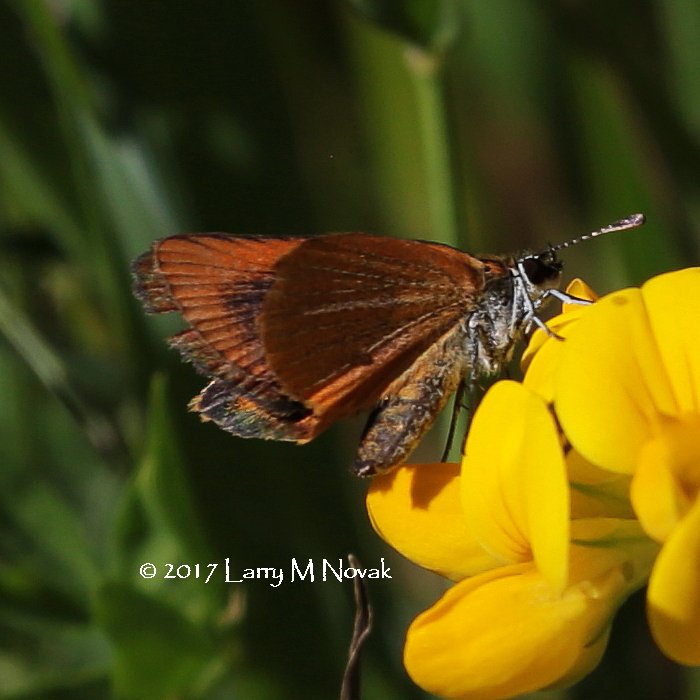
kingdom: Animalia
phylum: Arthropoda
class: Insecta
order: Lepidoptera
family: Hesperiidae
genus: Ancyloxypha
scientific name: Ancyloxypha numitor
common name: Least Skipper
